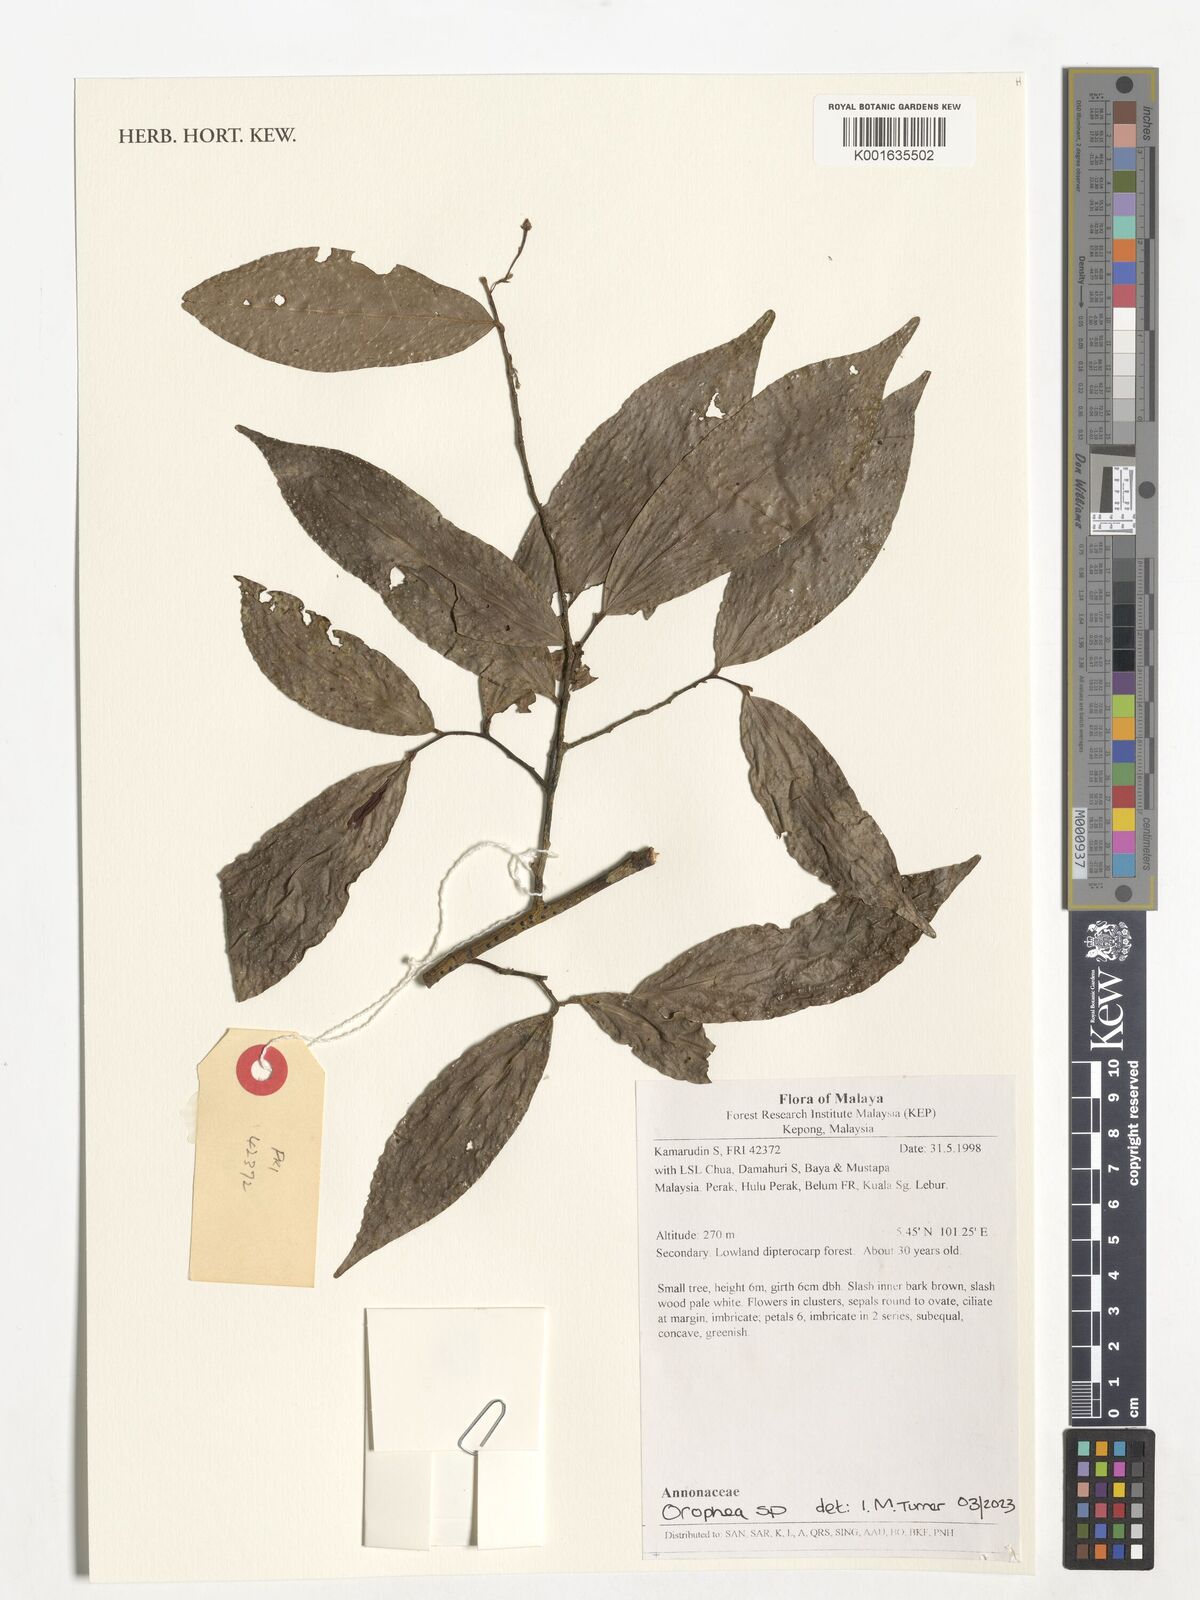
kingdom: Plantae
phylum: Tracheophyta
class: Magnoliopsida
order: Magnoliales
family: Annonaceae
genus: Orophea
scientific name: Orophea
